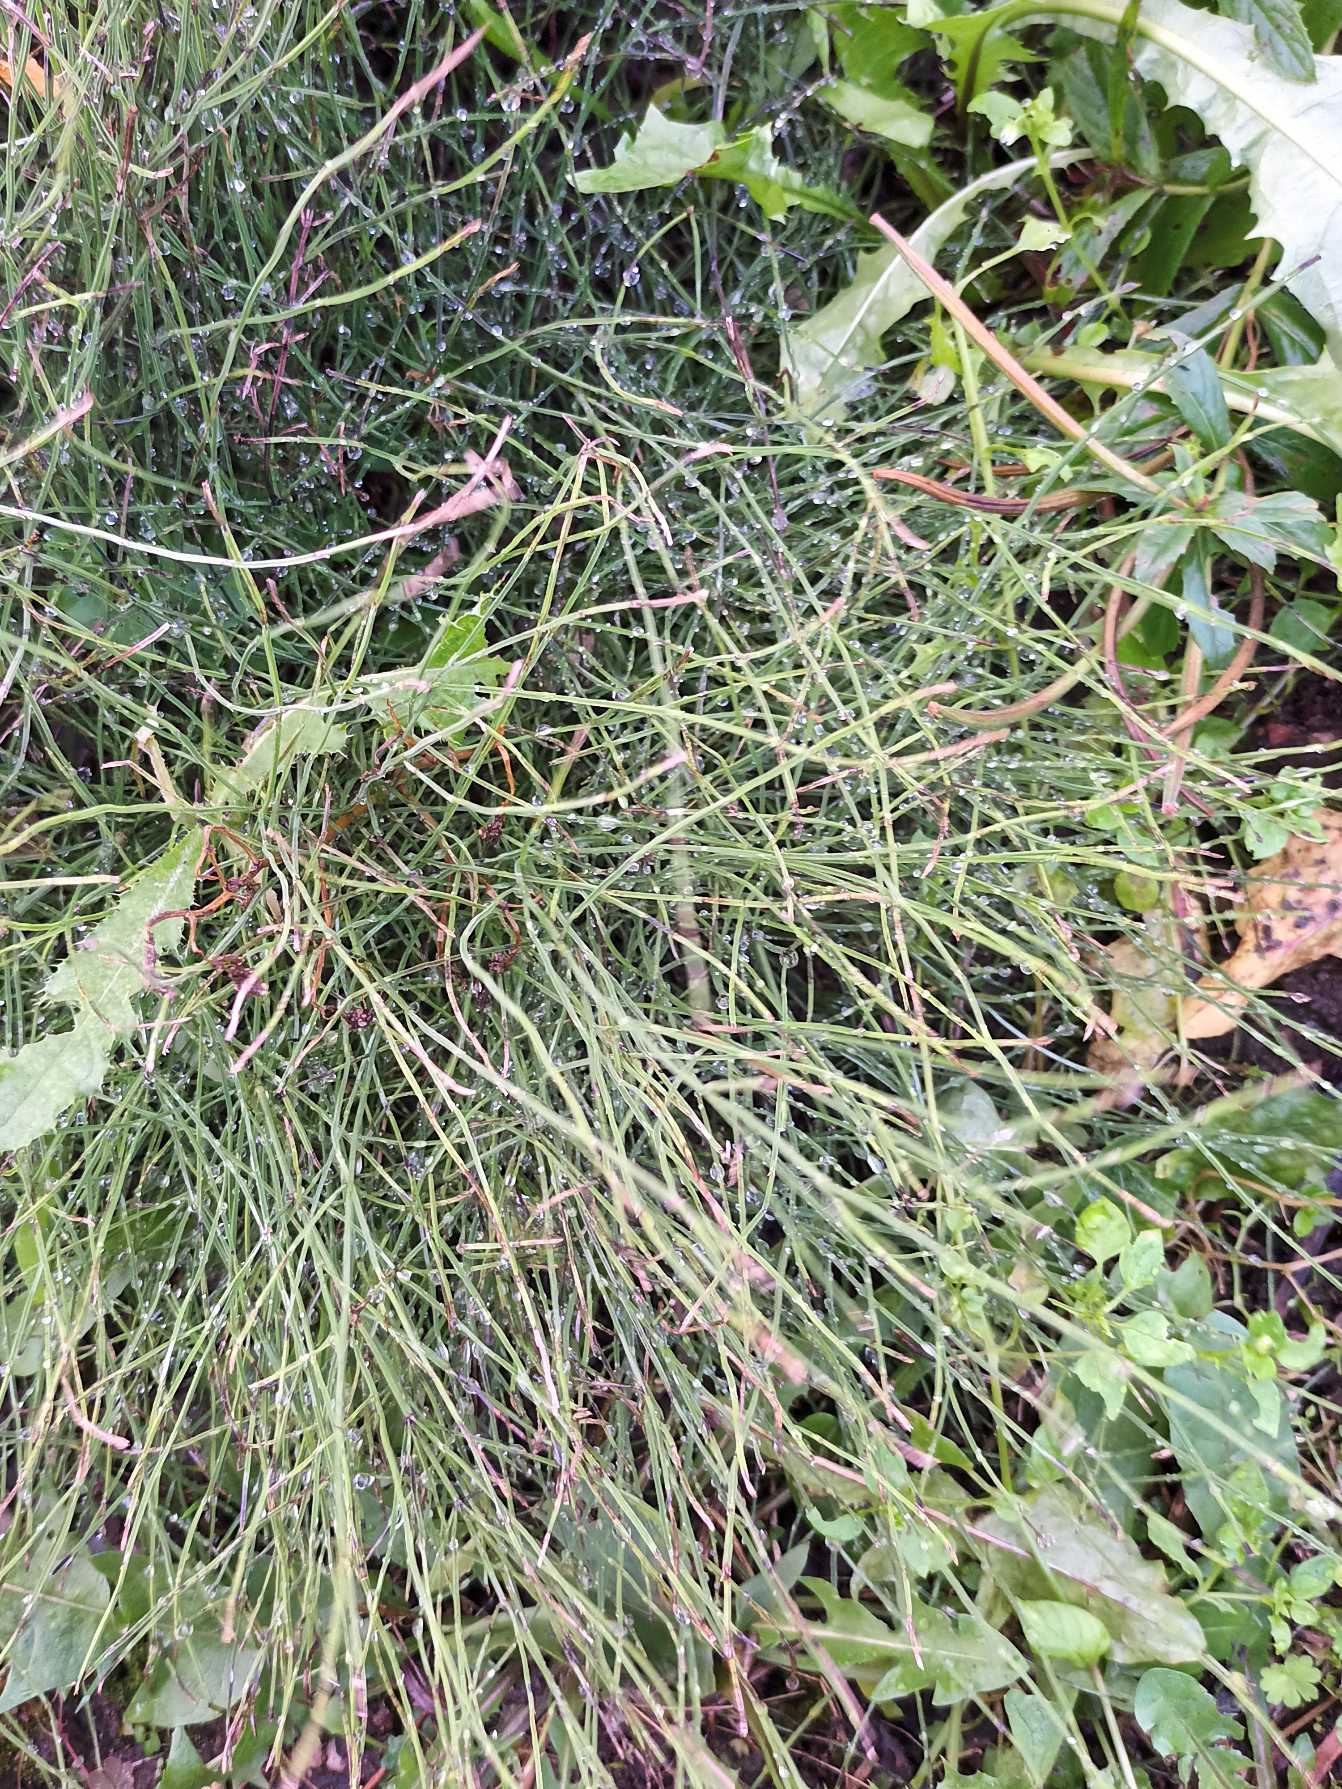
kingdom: Plantae
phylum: Tracheophyta
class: Polypodiopsida
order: Equisetales
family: Equisetaceae
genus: Equisetum
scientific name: Equisetum arvense
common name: Ager-padderok
